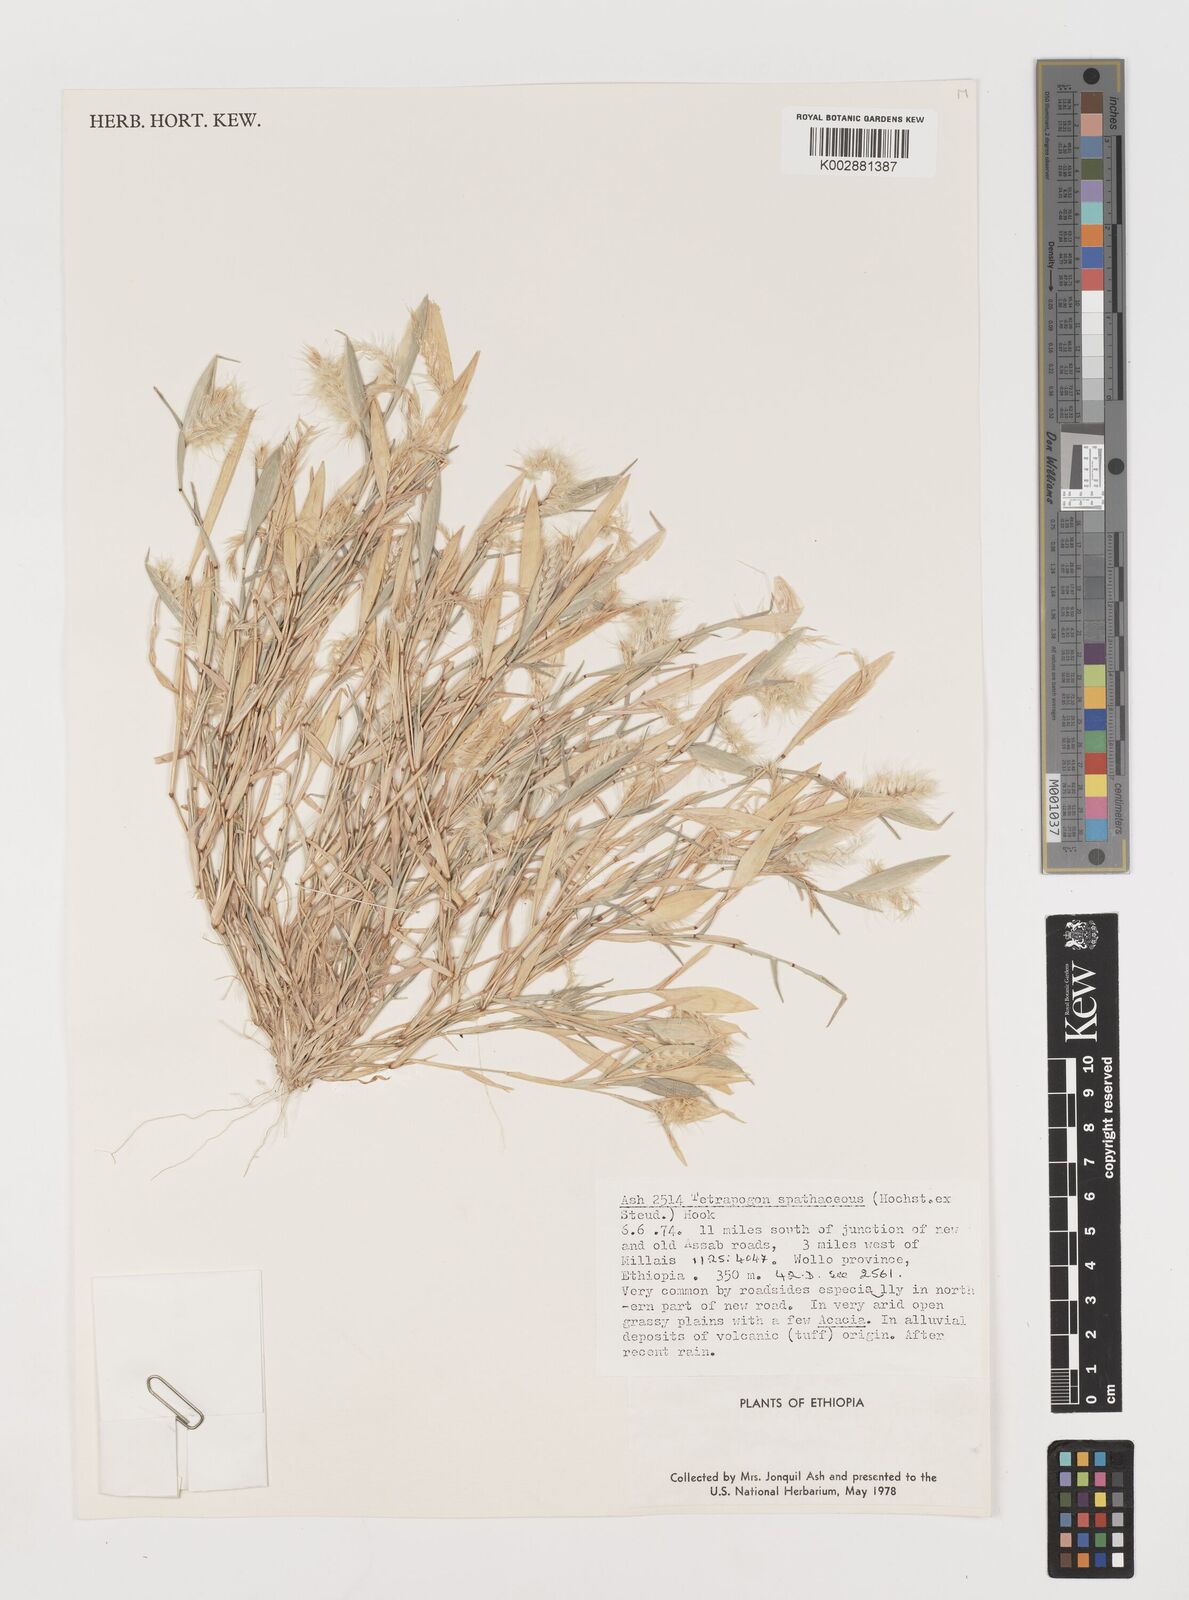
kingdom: Plantae
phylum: Tracheophyta
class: Liliopsida
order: Poales
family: Poaceae
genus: Tetrapogon
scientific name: Tetrapogon cenchriformis
